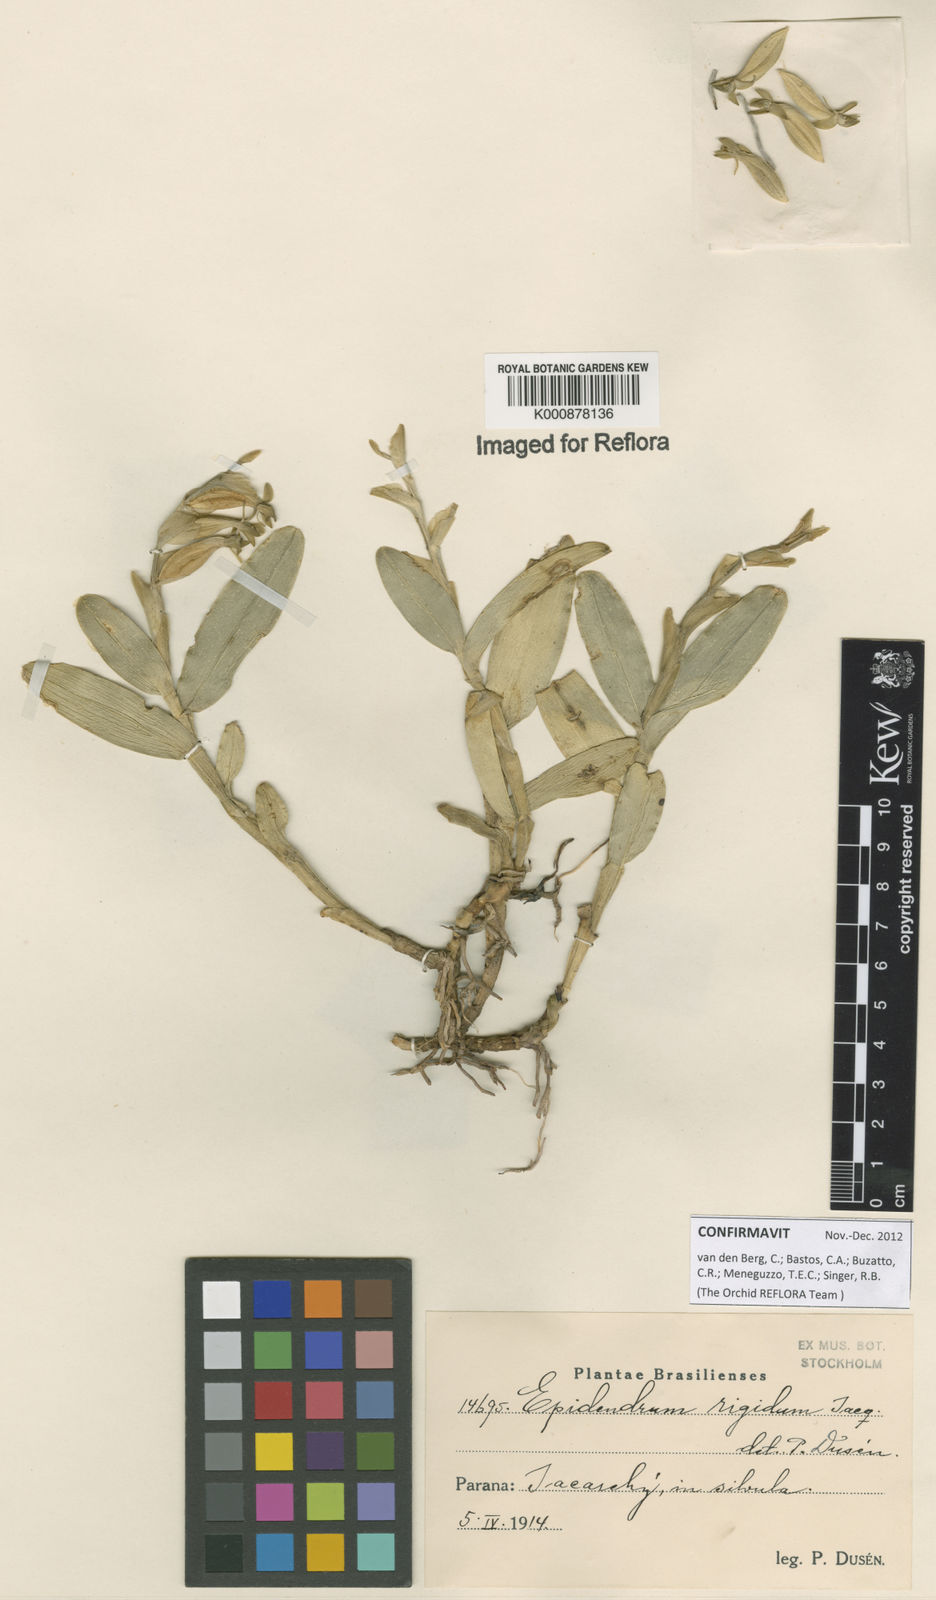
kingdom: Plantae
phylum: Tracheophyta
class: Liliopsida
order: Asparagales
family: Orchidaceae
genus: Epidendrum
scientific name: Epidendrum rigidum
